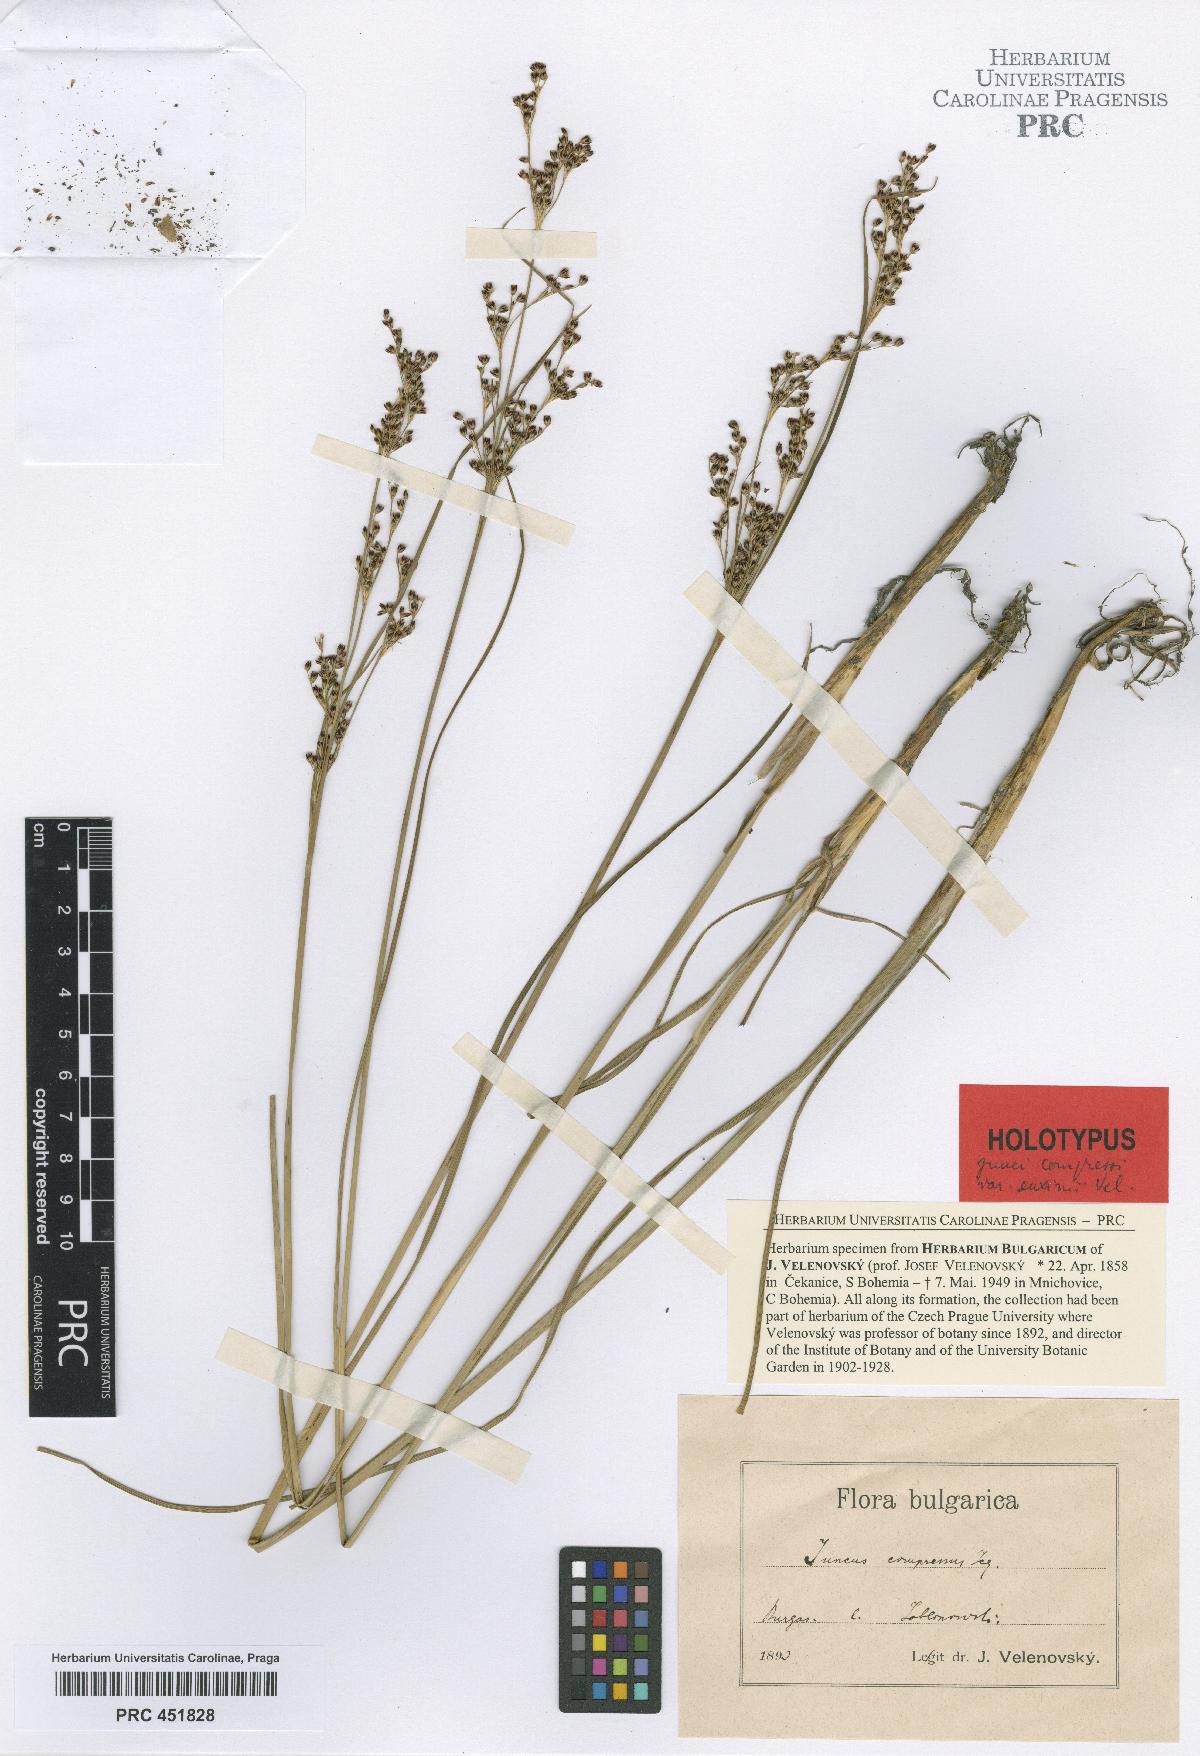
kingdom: Plantae
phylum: Tracheophyta
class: Liliopsida
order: Poales
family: Juncaceae
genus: Juncus
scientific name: Juncus compressus
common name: Round-fruited rush
